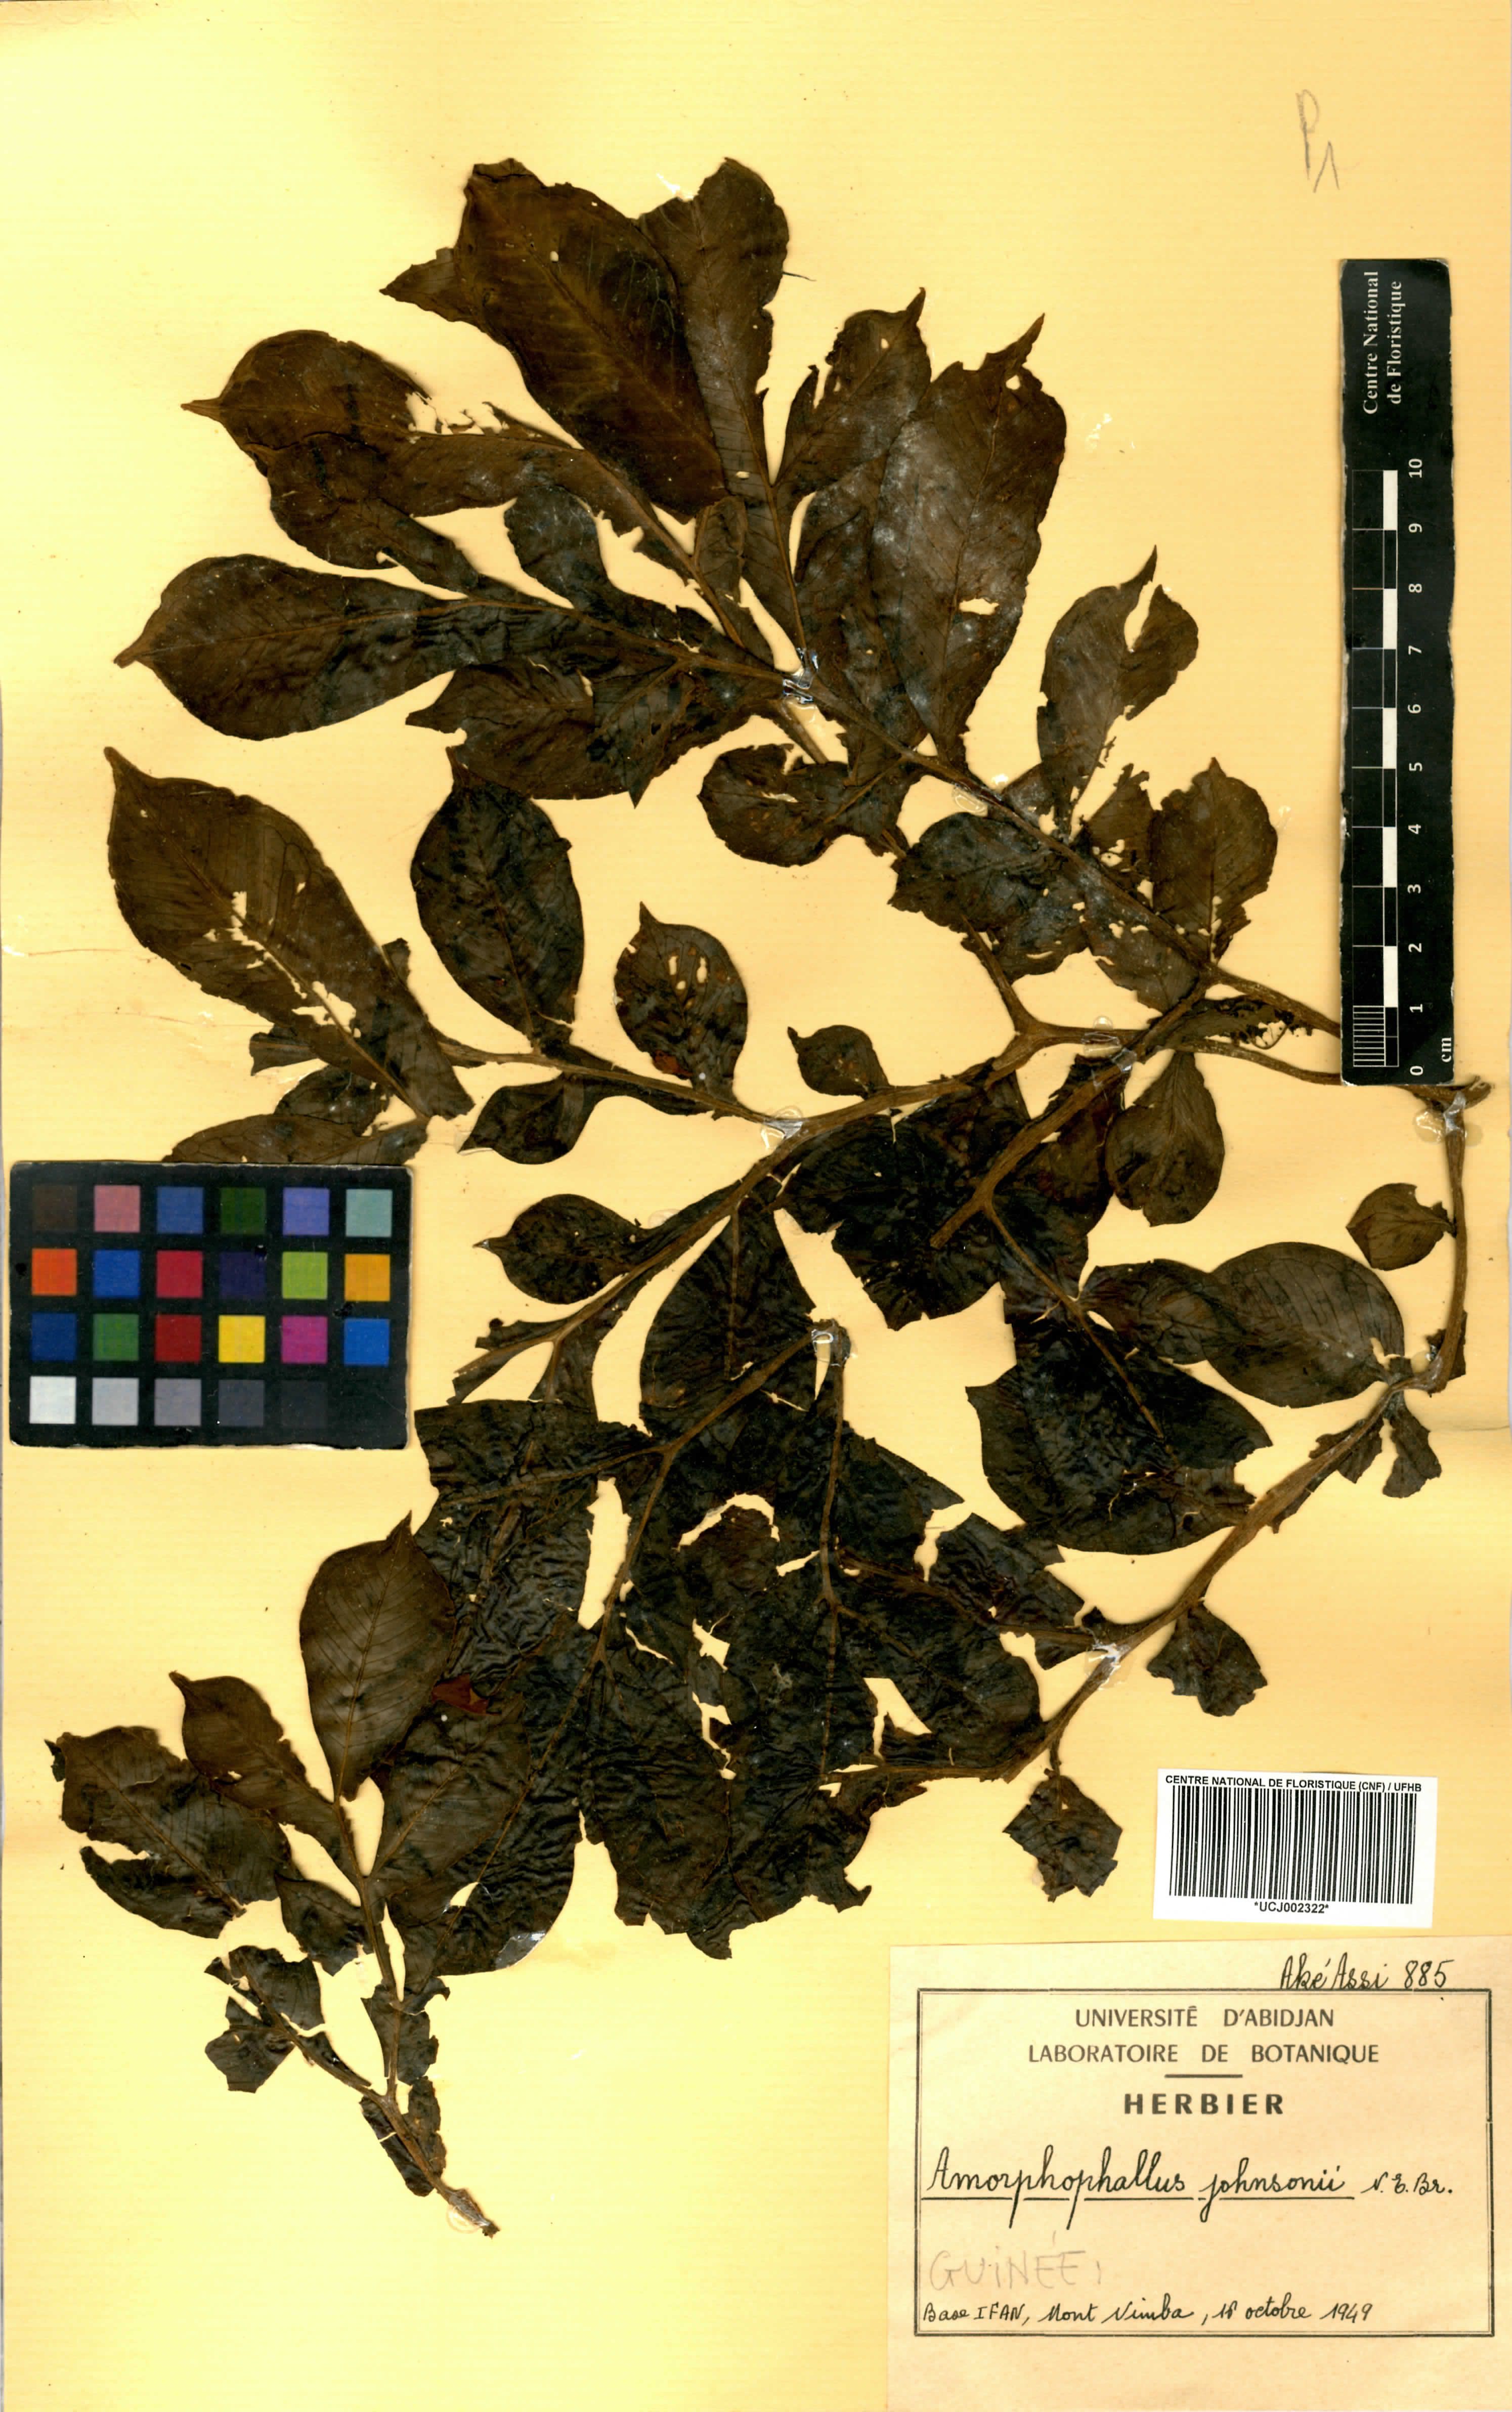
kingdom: Plantae
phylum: Tracheophyta
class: Liliopsida
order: Alismatales
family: Araceae
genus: Amorphophallus
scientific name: Amorphophallus johnsonii
